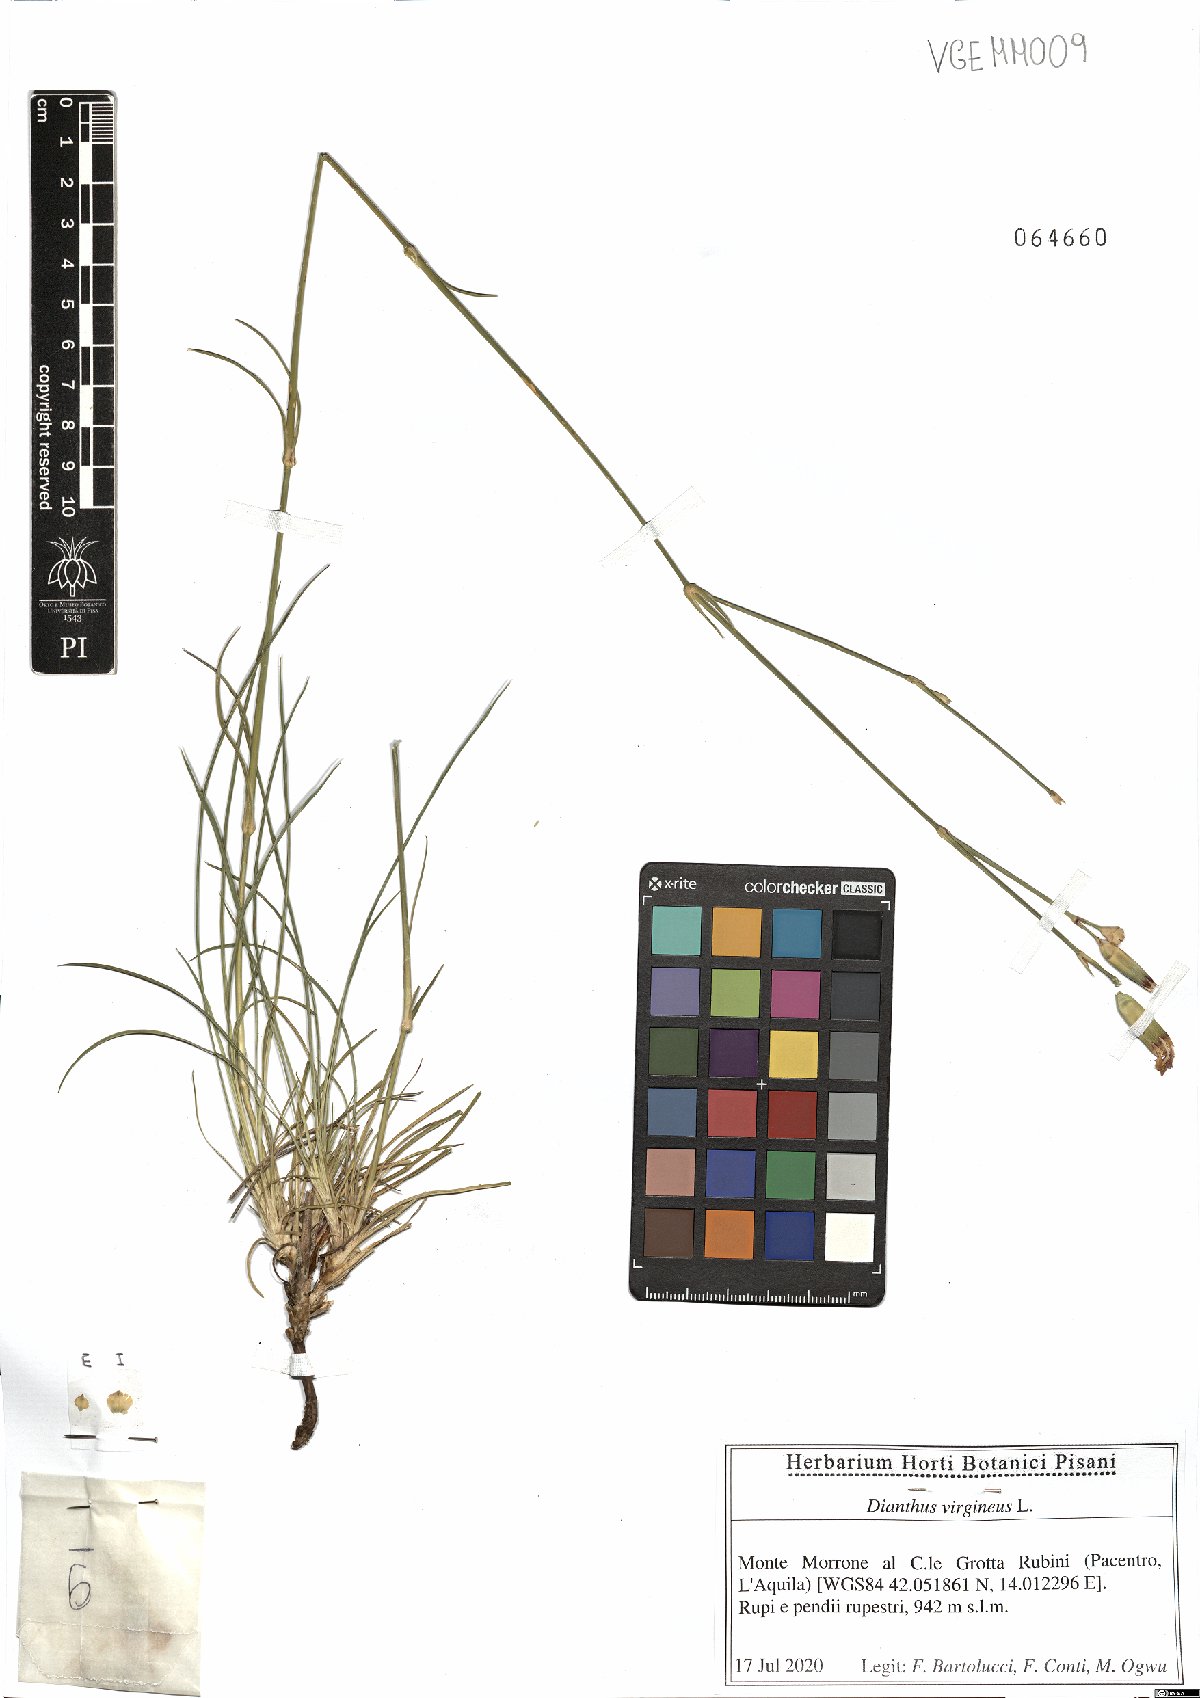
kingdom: Plantae
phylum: Tracheophyta
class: Magnoliopsida
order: Caryophyllales
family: Caryophyllaceae
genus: Dianthus
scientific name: Dianthus virgineus
